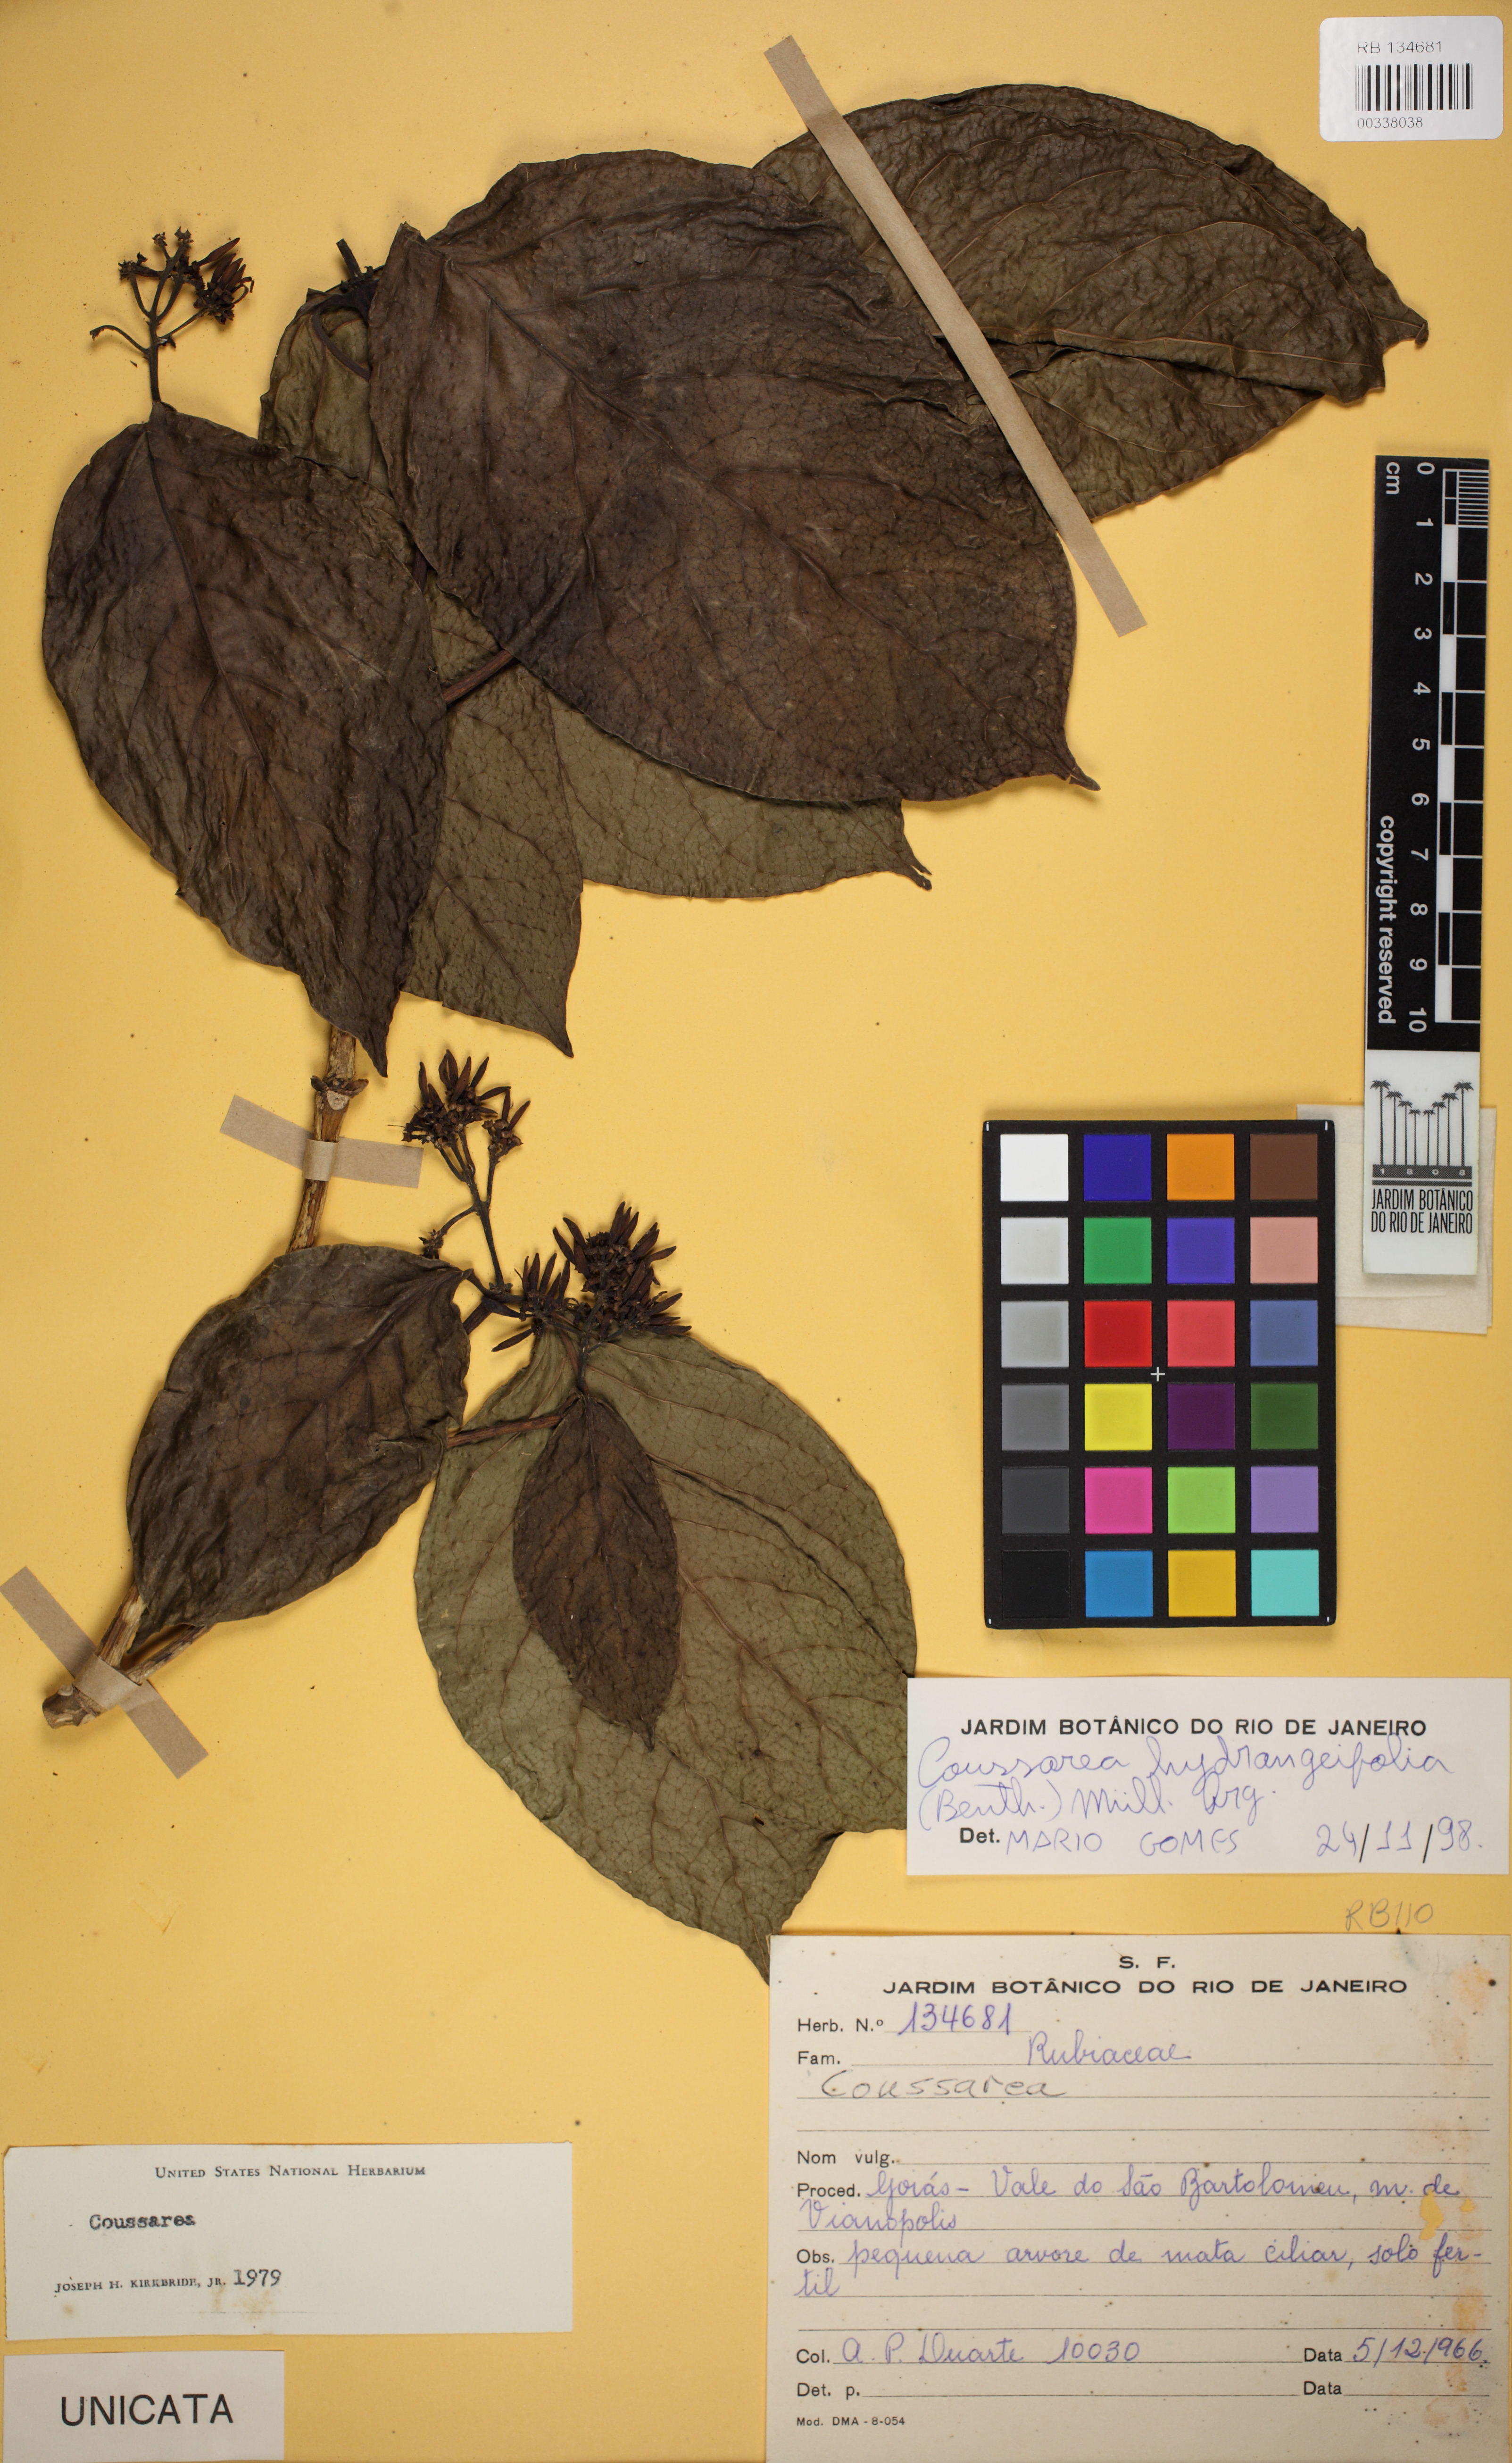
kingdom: Plantae
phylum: Tracheophyta
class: Magnoliopsida
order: Gentianales
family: Rubiaceae
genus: Coussarea
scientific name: Coussarea hydrangeifolia
